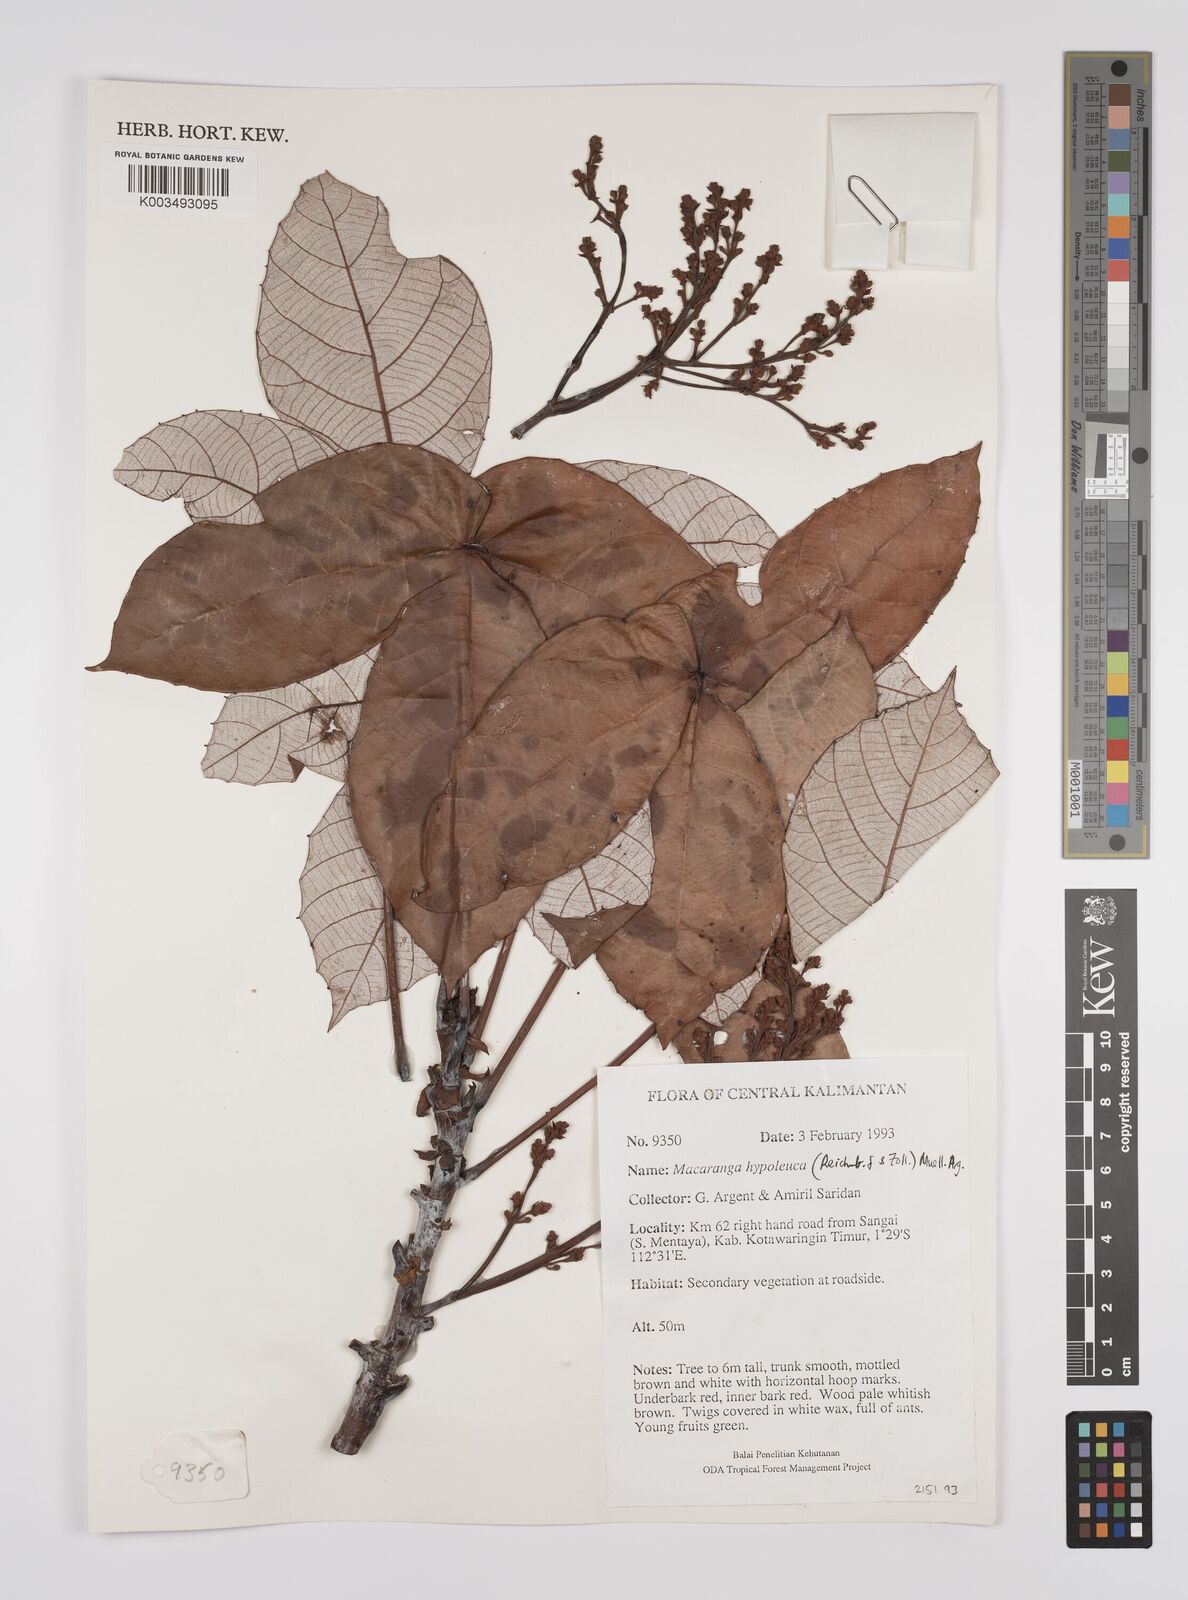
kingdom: Plantae
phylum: Tracheophyta
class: Magnoliopsida
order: Malpighiales
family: Euphorbiaceae
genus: Macaranga
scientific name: Macaranga hypoleuca
